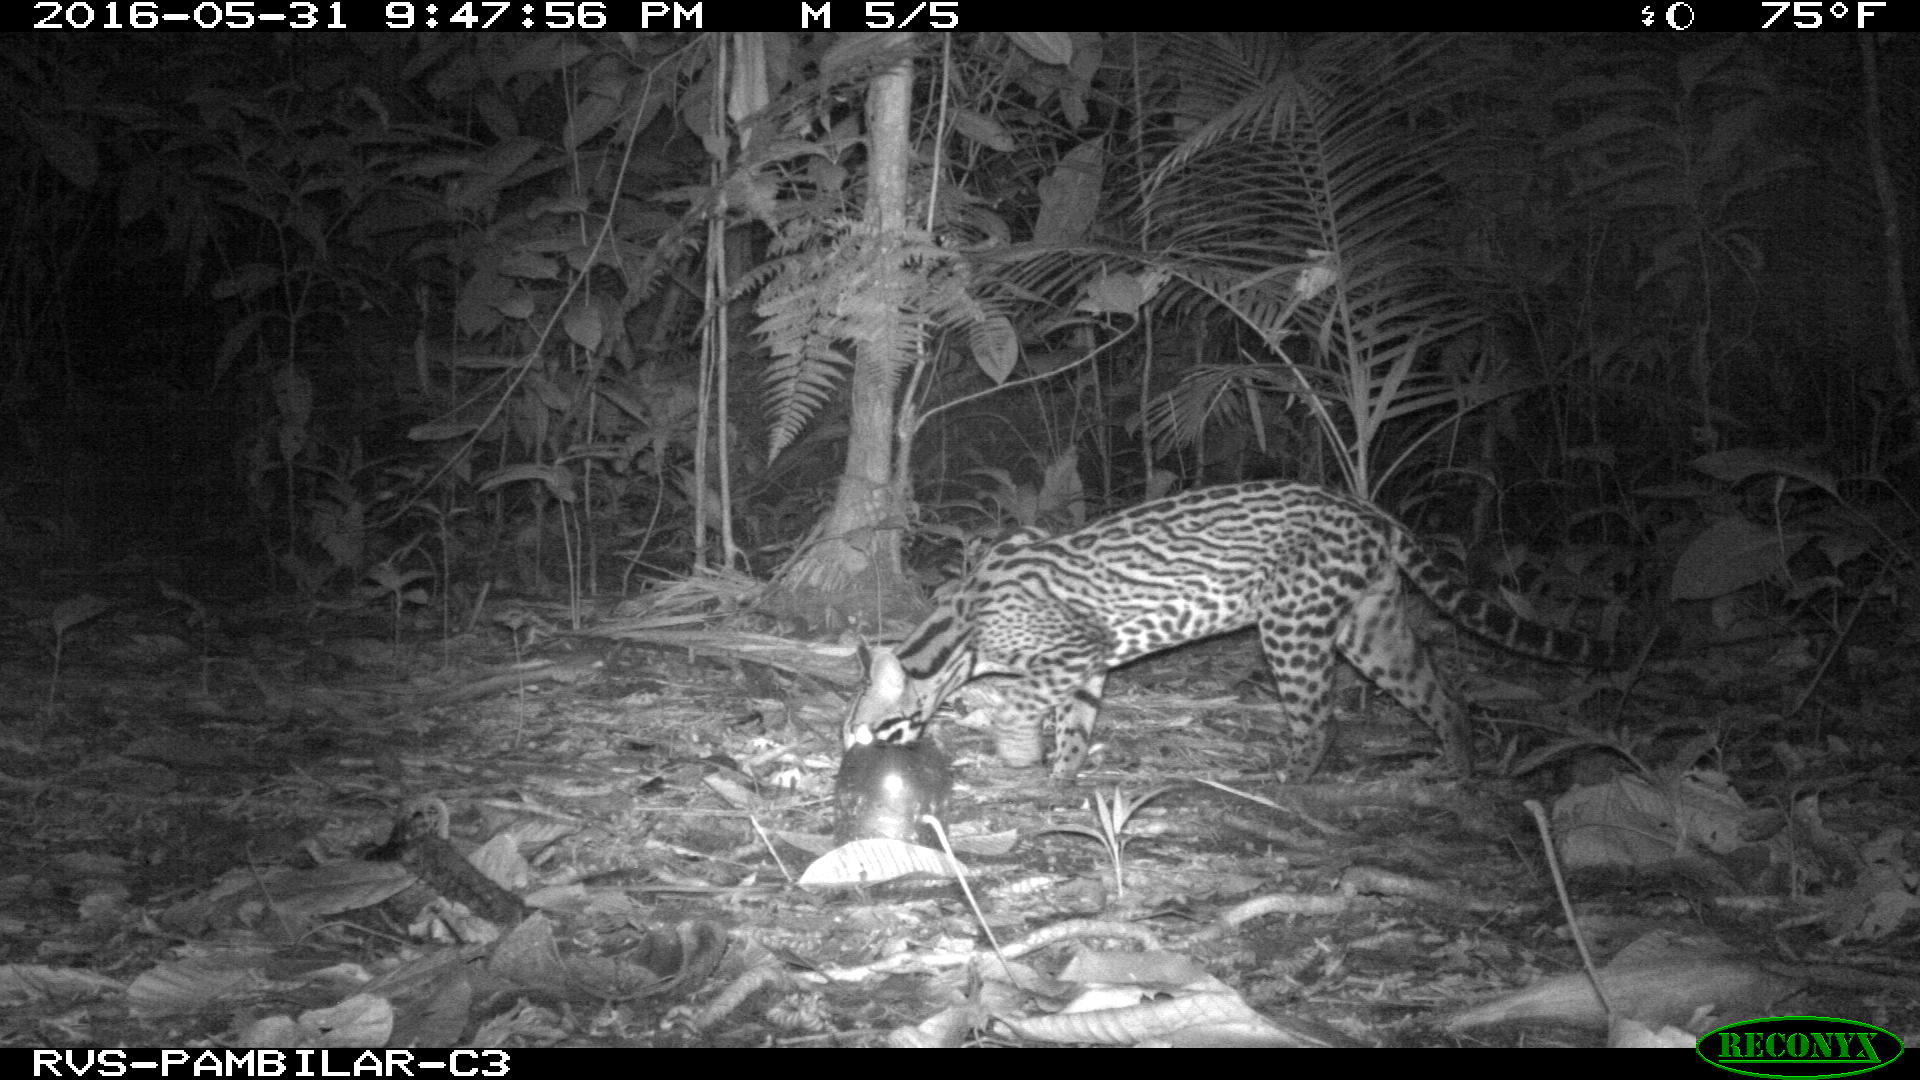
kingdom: Animalia
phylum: Chordata
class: Mammalia
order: Carnivora
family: Felidae
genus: Leopardus
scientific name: Leopardus pardalis
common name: Ocelot
